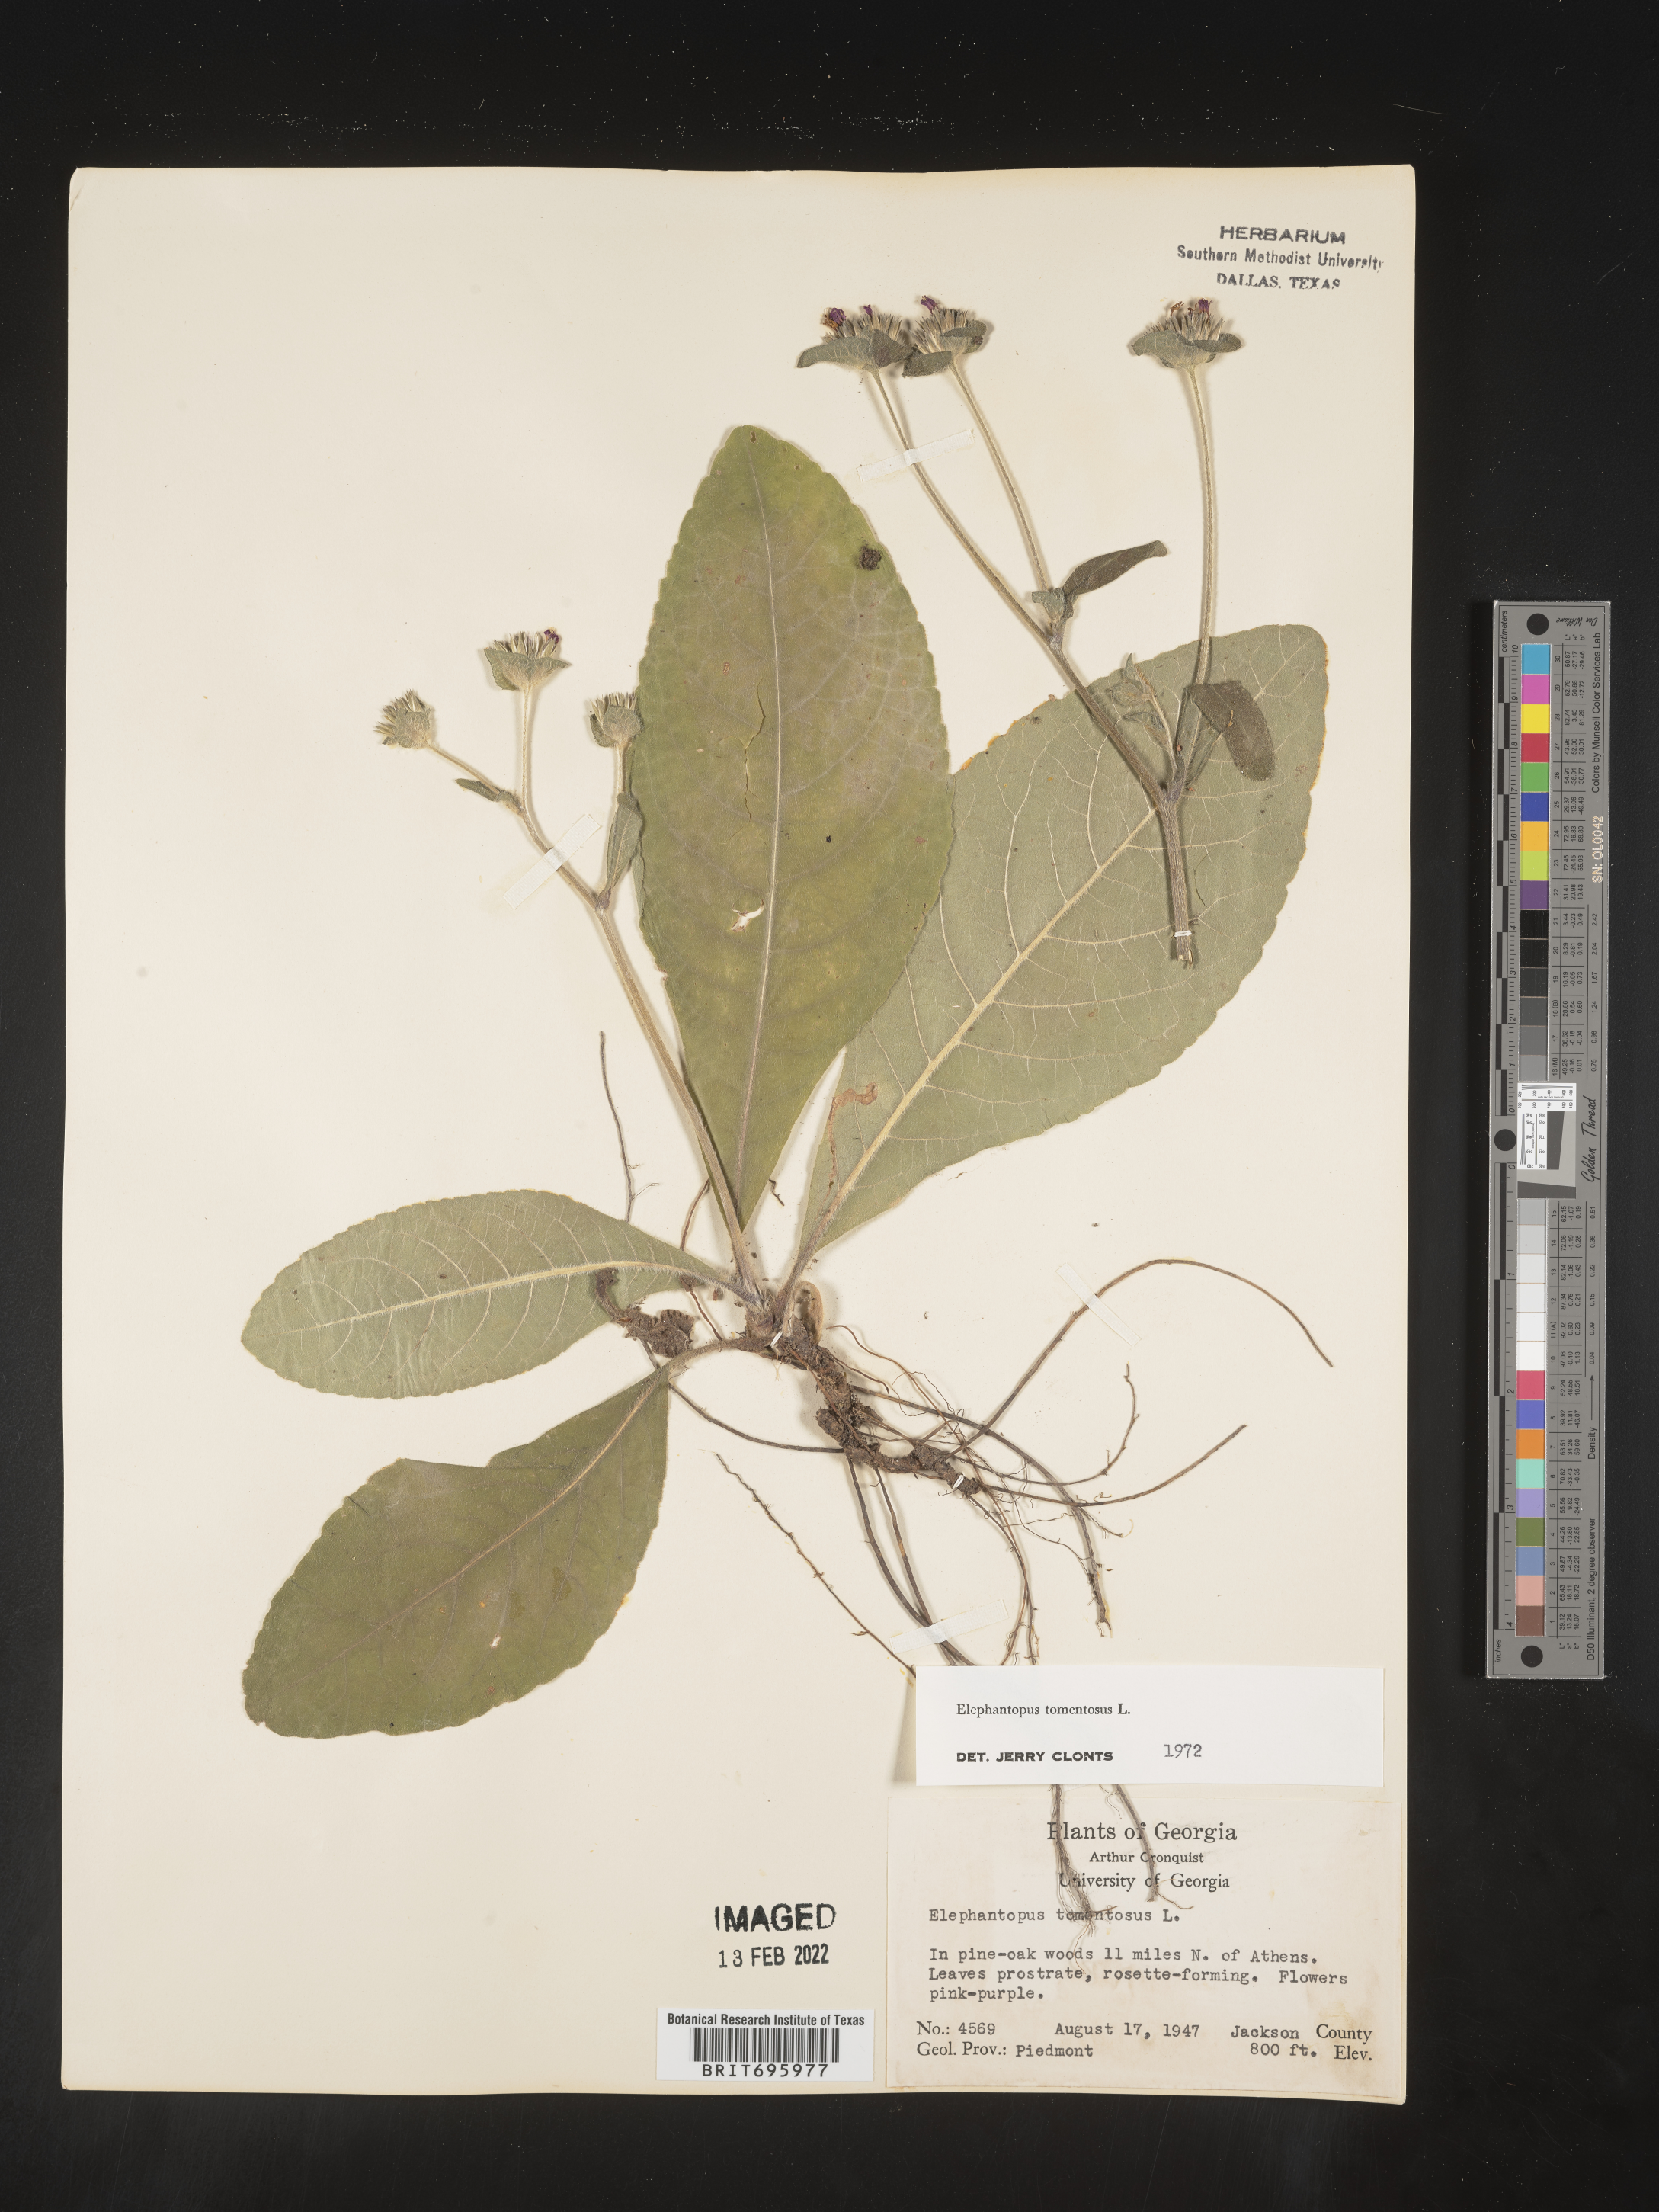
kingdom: Plantae
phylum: Tracheophyta
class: Magnoliopsida
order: Asterales
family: Asteraceae
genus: Elephantopus
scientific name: Elephantopus tomentosus
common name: Tobacco-weed
